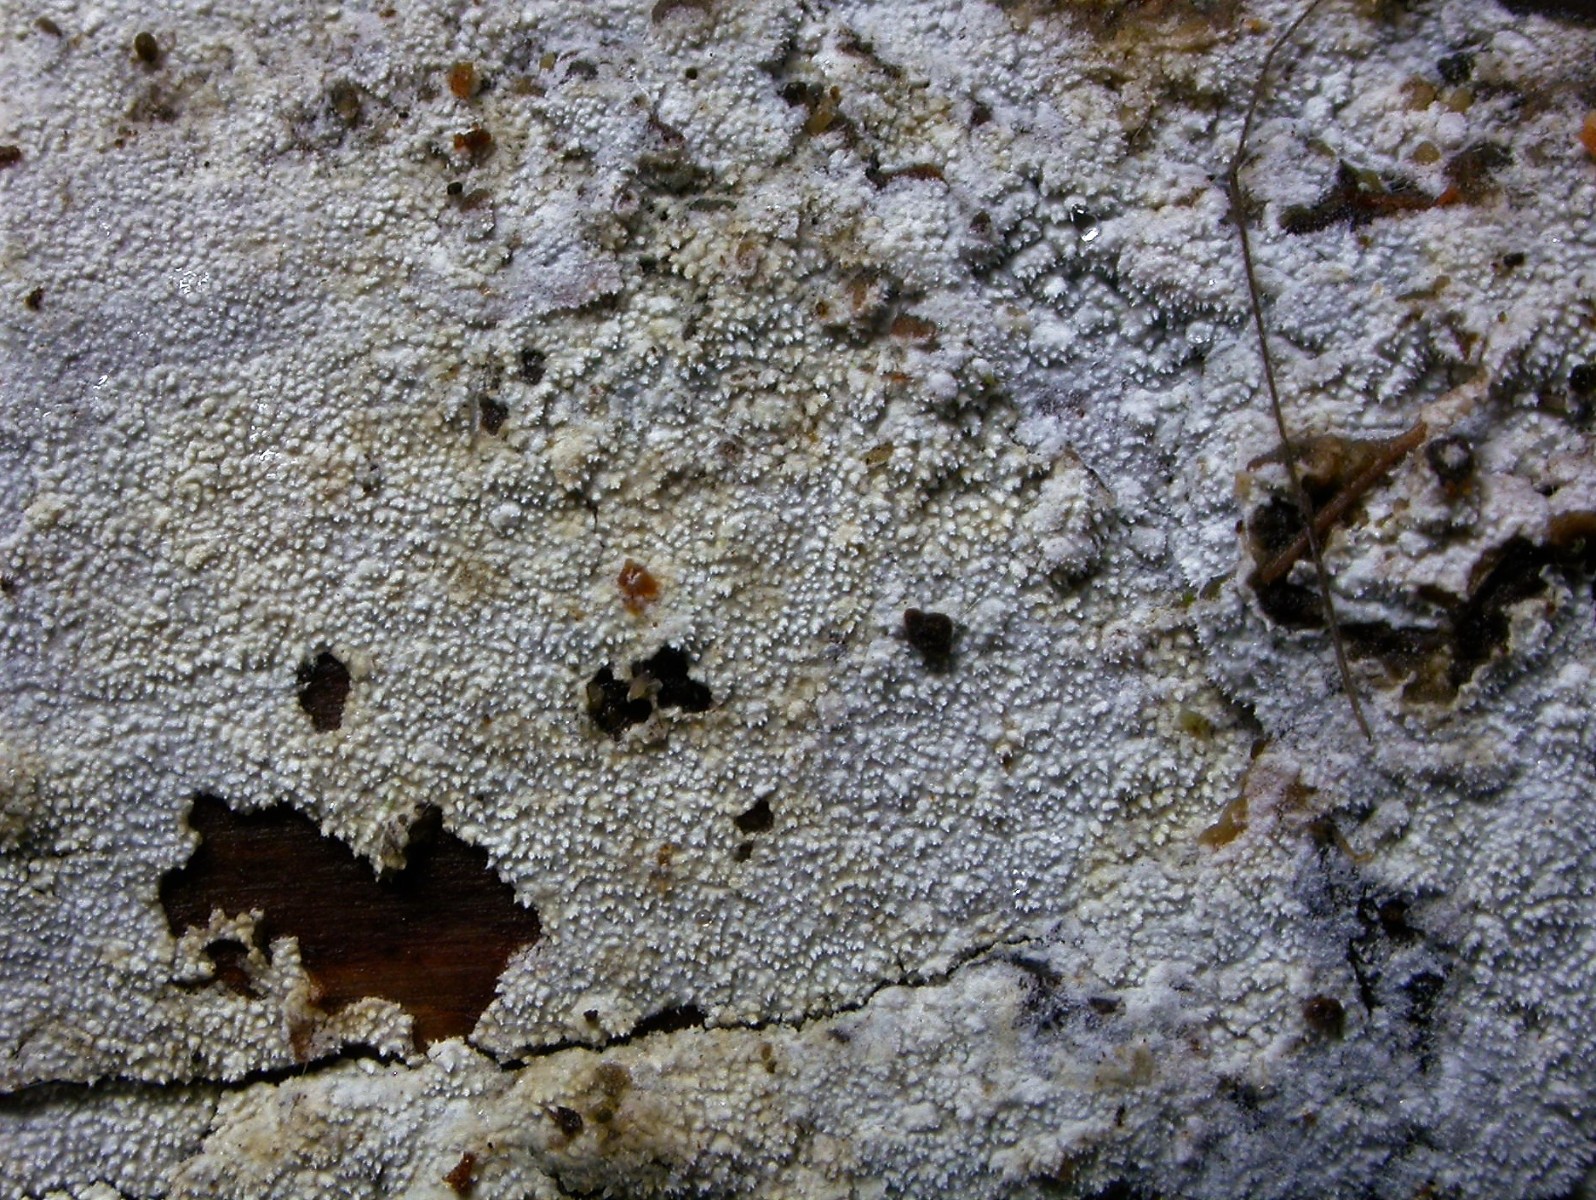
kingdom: Fungi
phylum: Basidiomycota
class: Agaricomycetes
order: Hymenochaetales
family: Schizoporaceae
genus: Xylodon
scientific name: Xylodon nesporii
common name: fintandet tandsvamp
